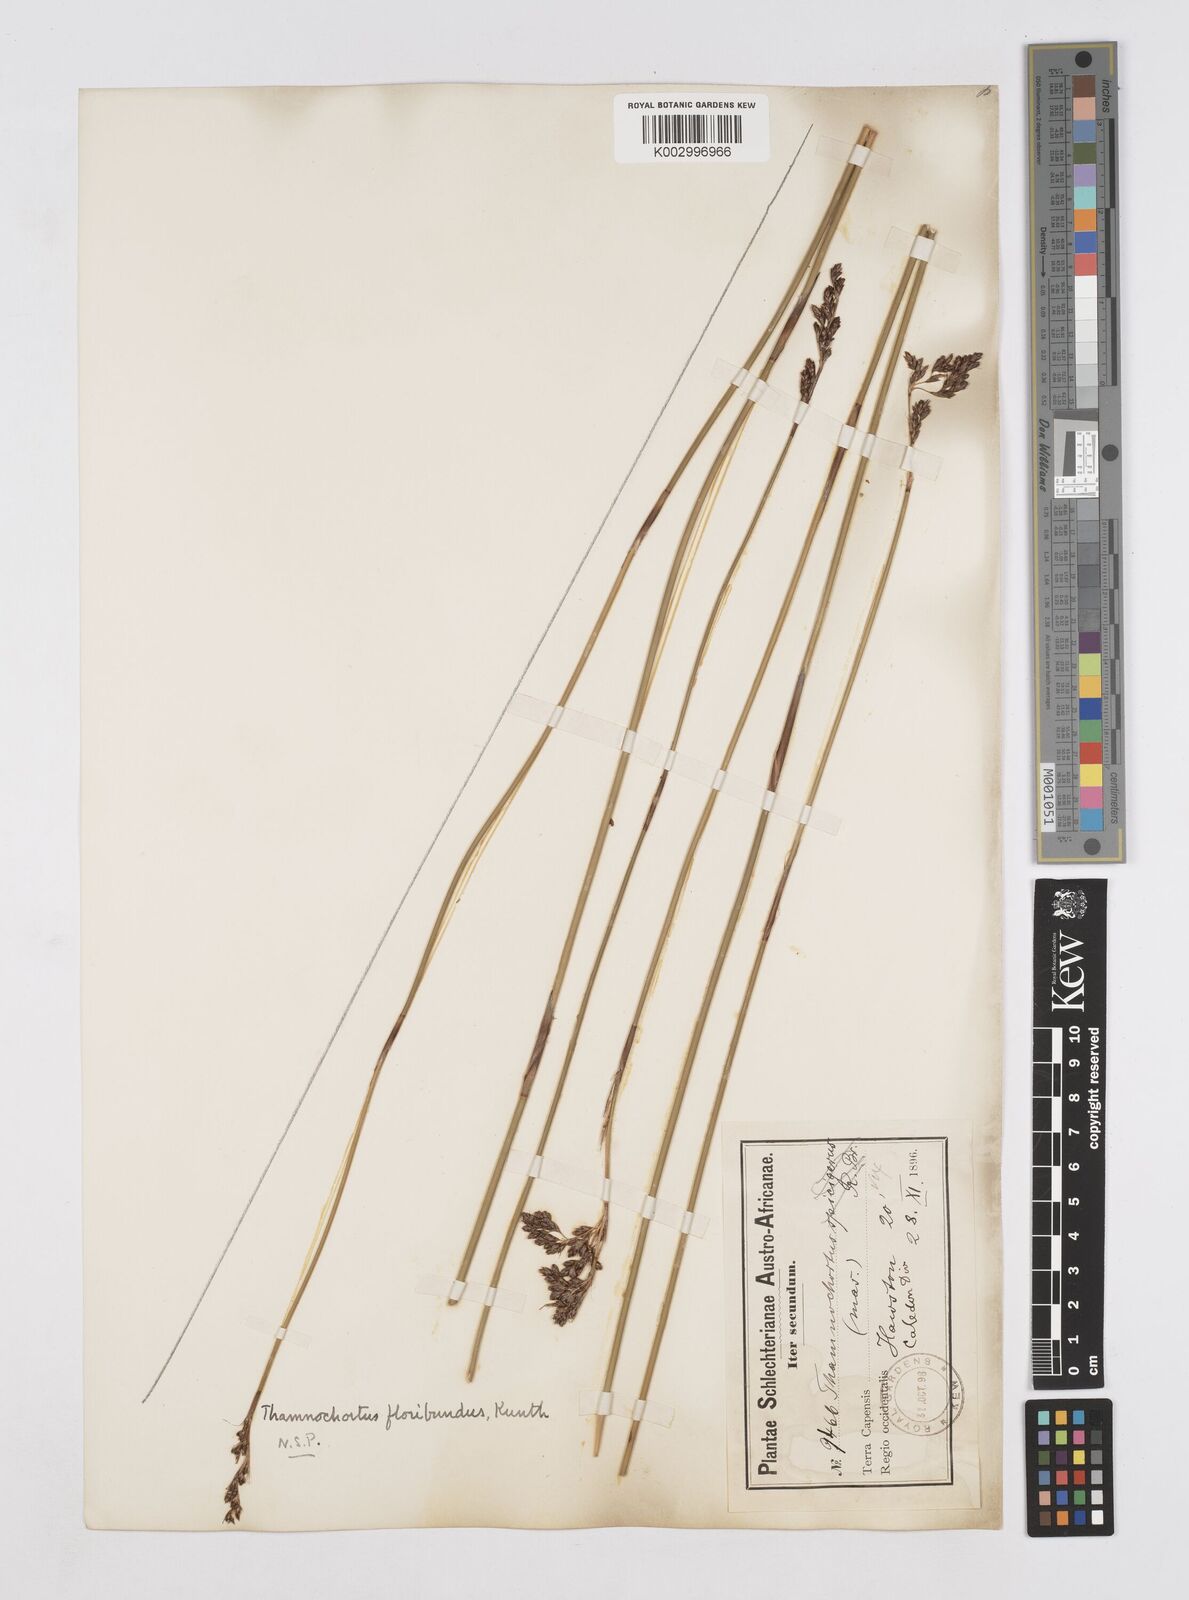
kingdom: Plantae
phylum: Tracheophyta
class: Liliopsida
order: Poales
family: Restionaceae
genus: Thamnochortus
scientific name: Thamnochortus erectus
